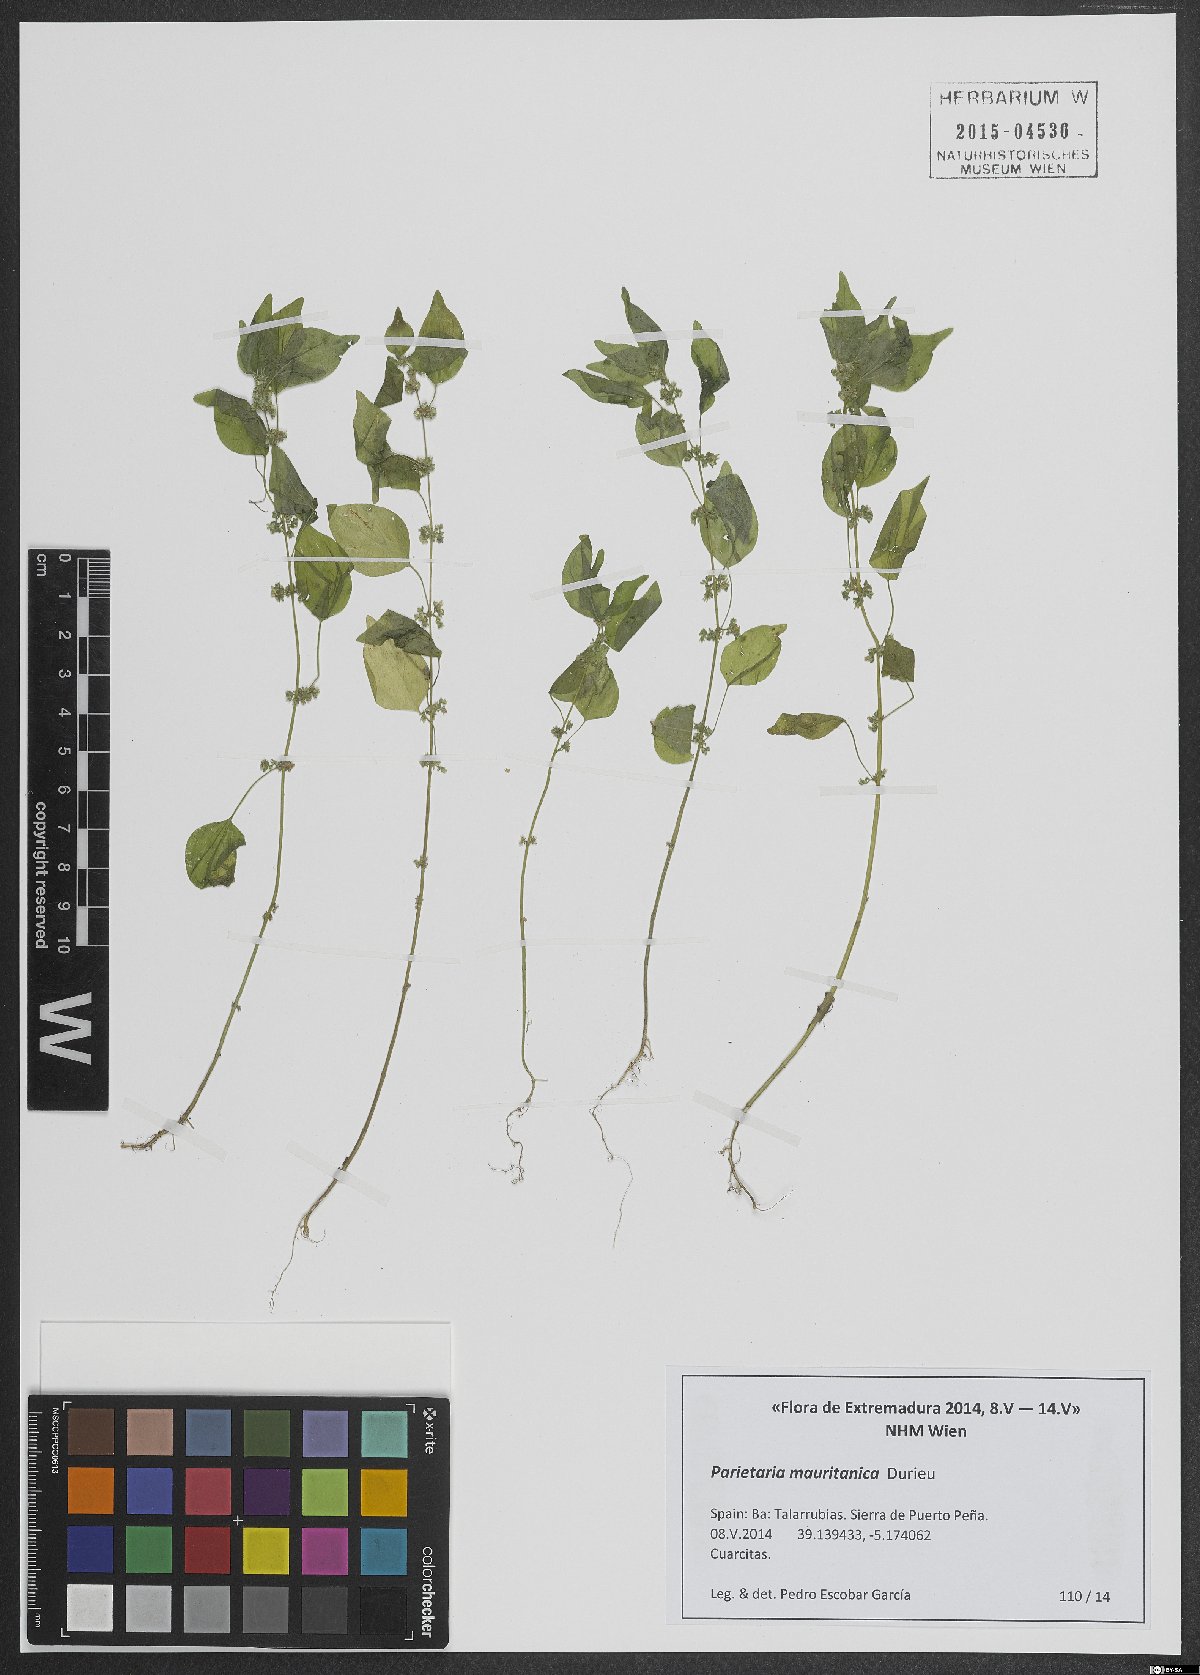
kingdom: Plantae
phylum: Tracheophyta
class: Magnoliopsida
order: Rosales
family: Urticaceae
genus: Parietaria
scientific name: Parietaria mauritanica
